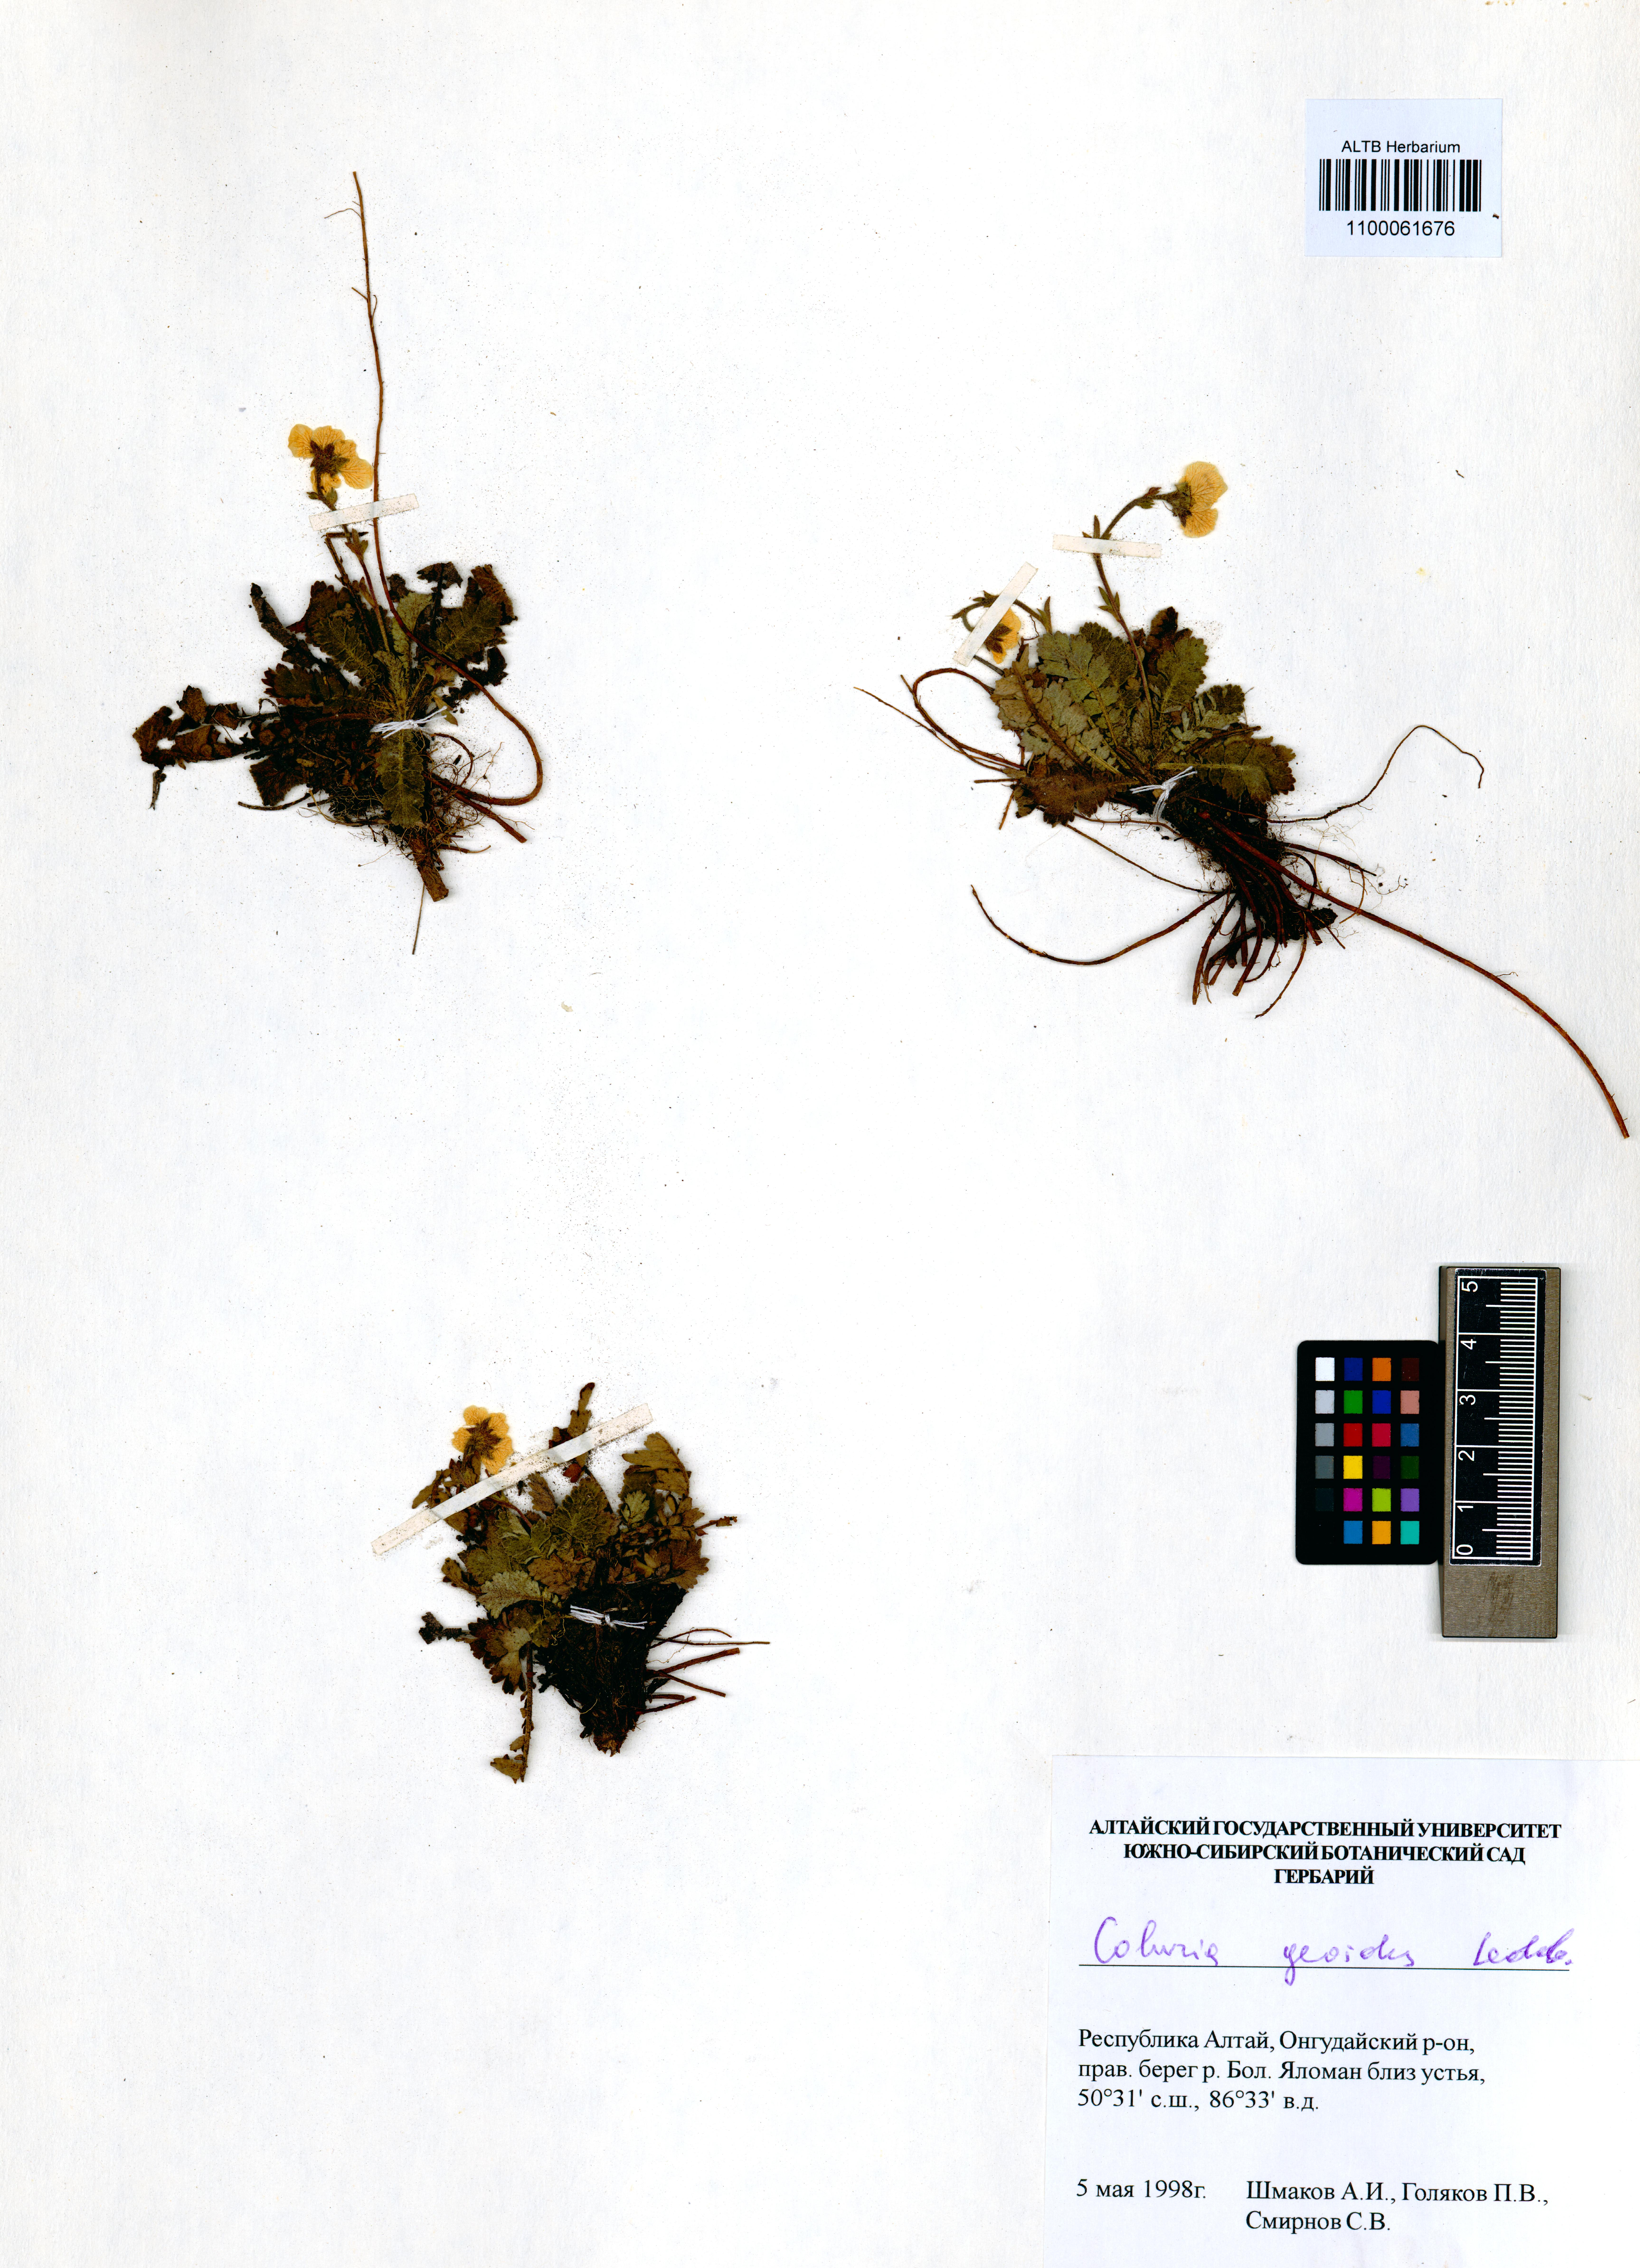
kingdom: Plantae
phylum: Tracheophyta
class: Magnoliopsida
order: Rosales
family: Rosaceae
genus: Geum
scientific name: Geum geoides
